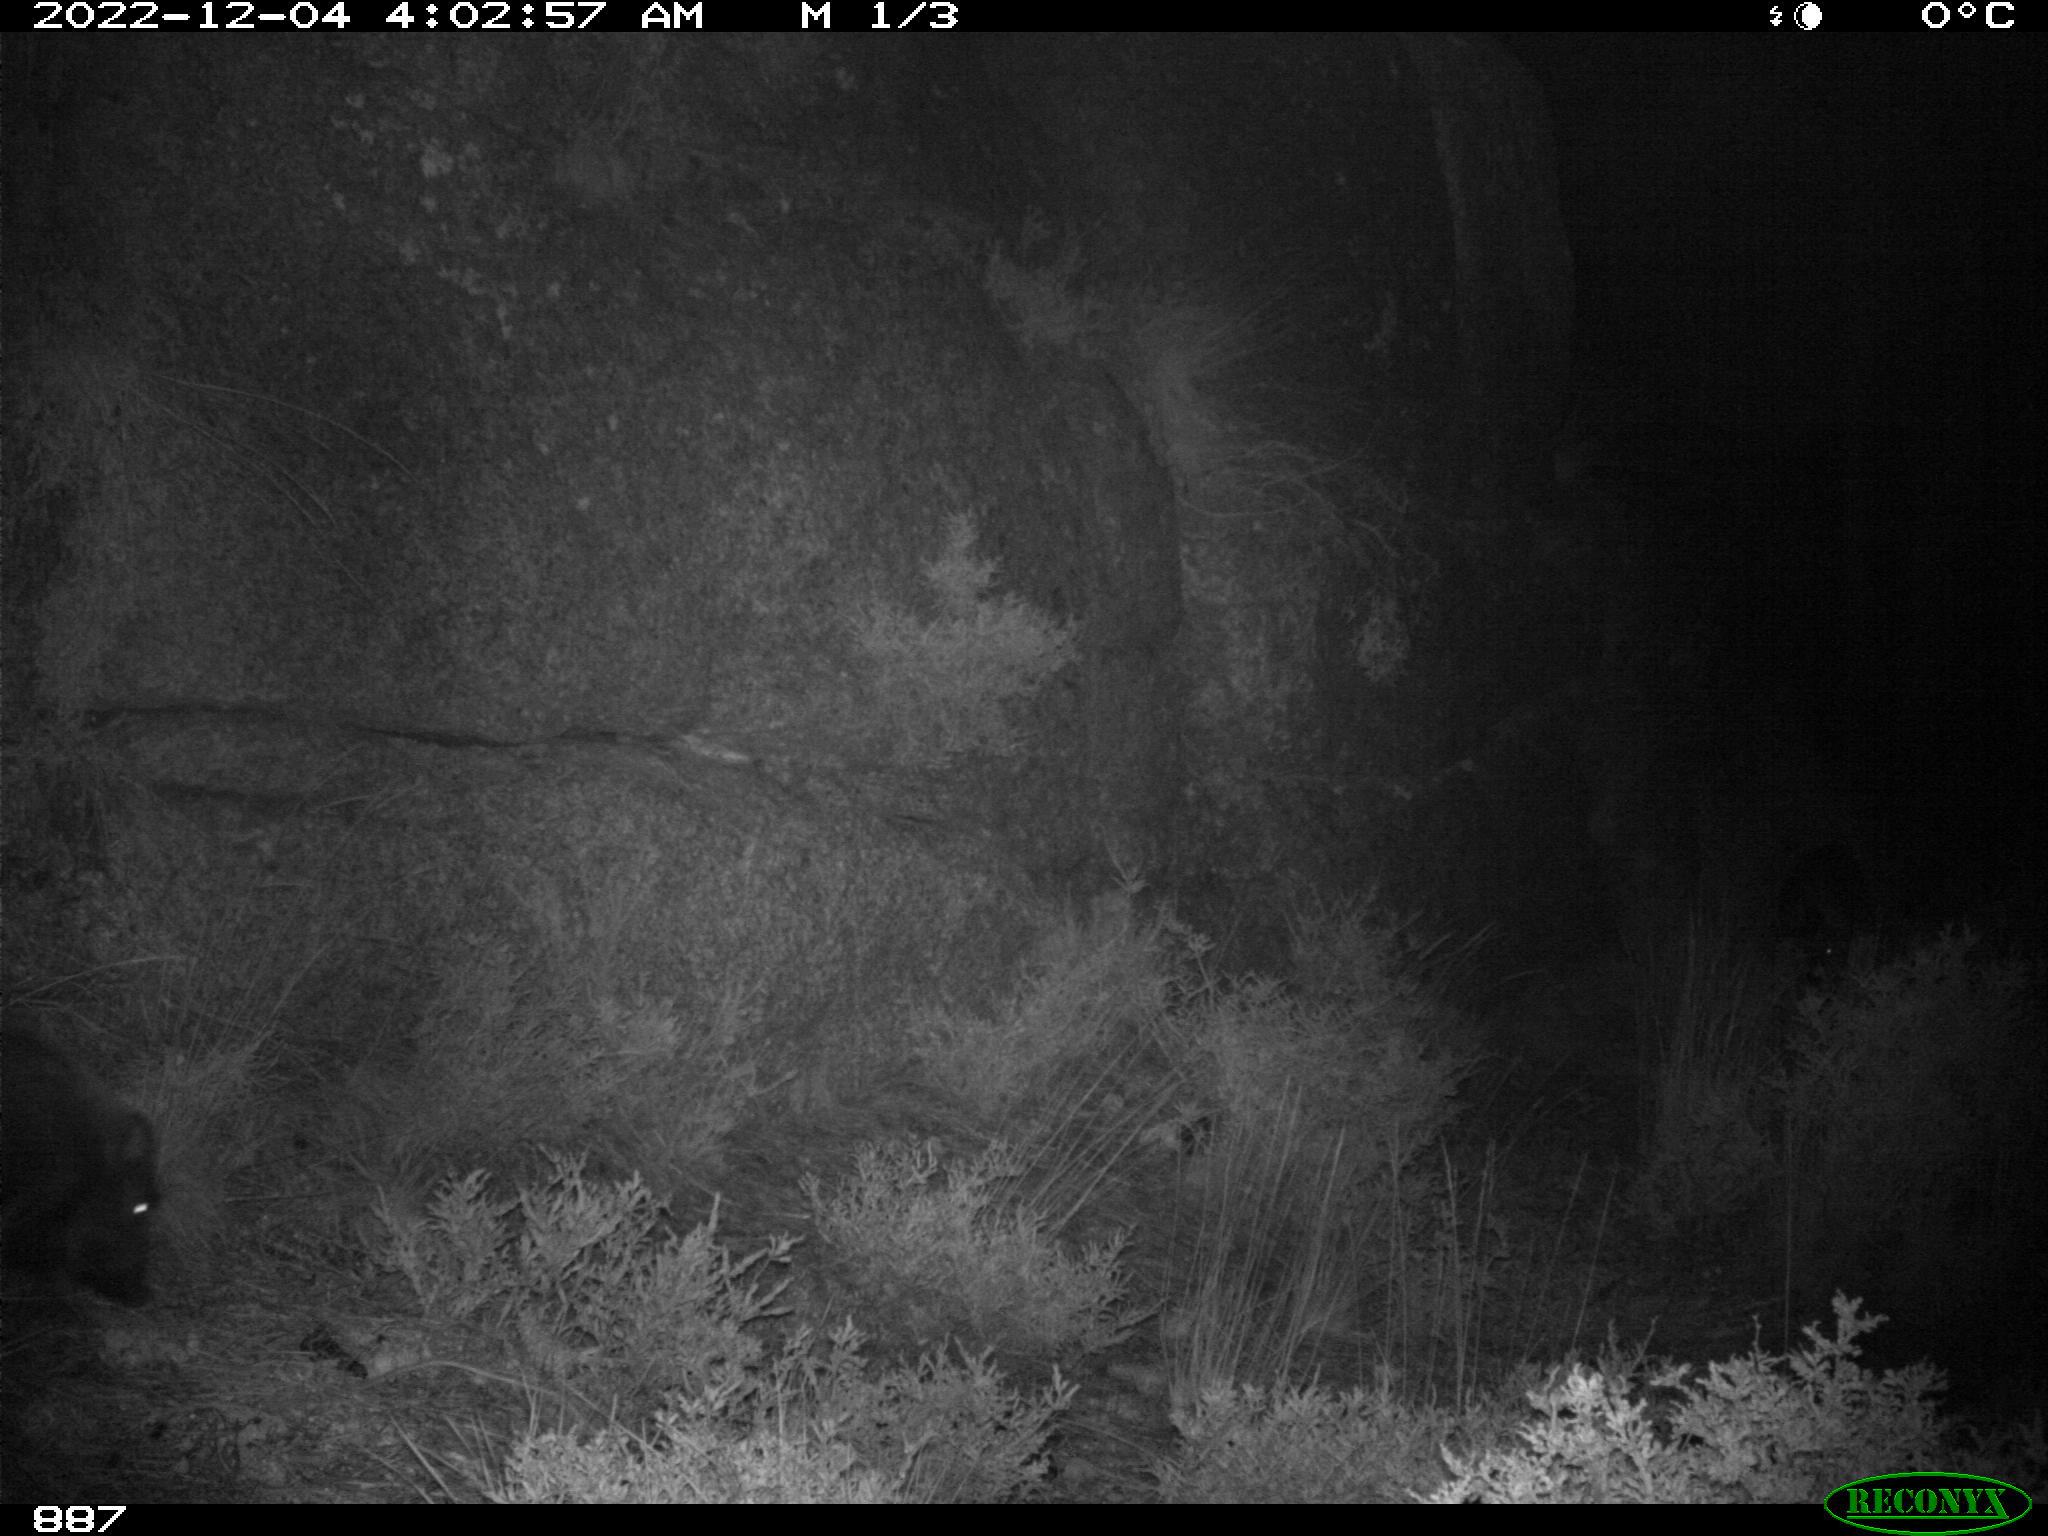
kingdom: Animalia
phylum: Chordata
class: Mammalia
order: Artiodactyla
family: Suidae
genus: Sus
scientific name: Sus scrofa
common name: Wild boar
